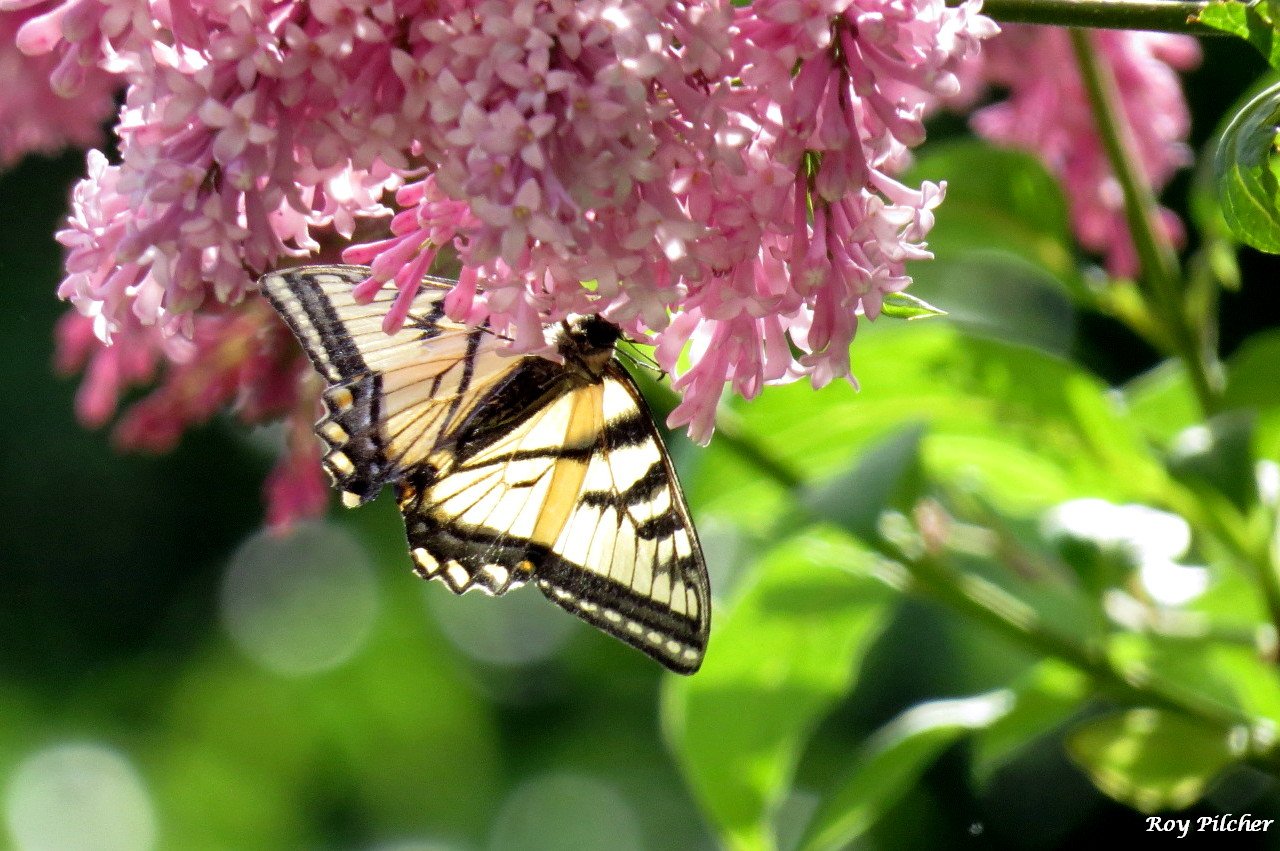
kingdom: Animalia
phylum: Arthropoda
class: Insecta
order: Lepidoptera
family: Papilionidae
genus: Pterourus
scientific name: Pterourus
